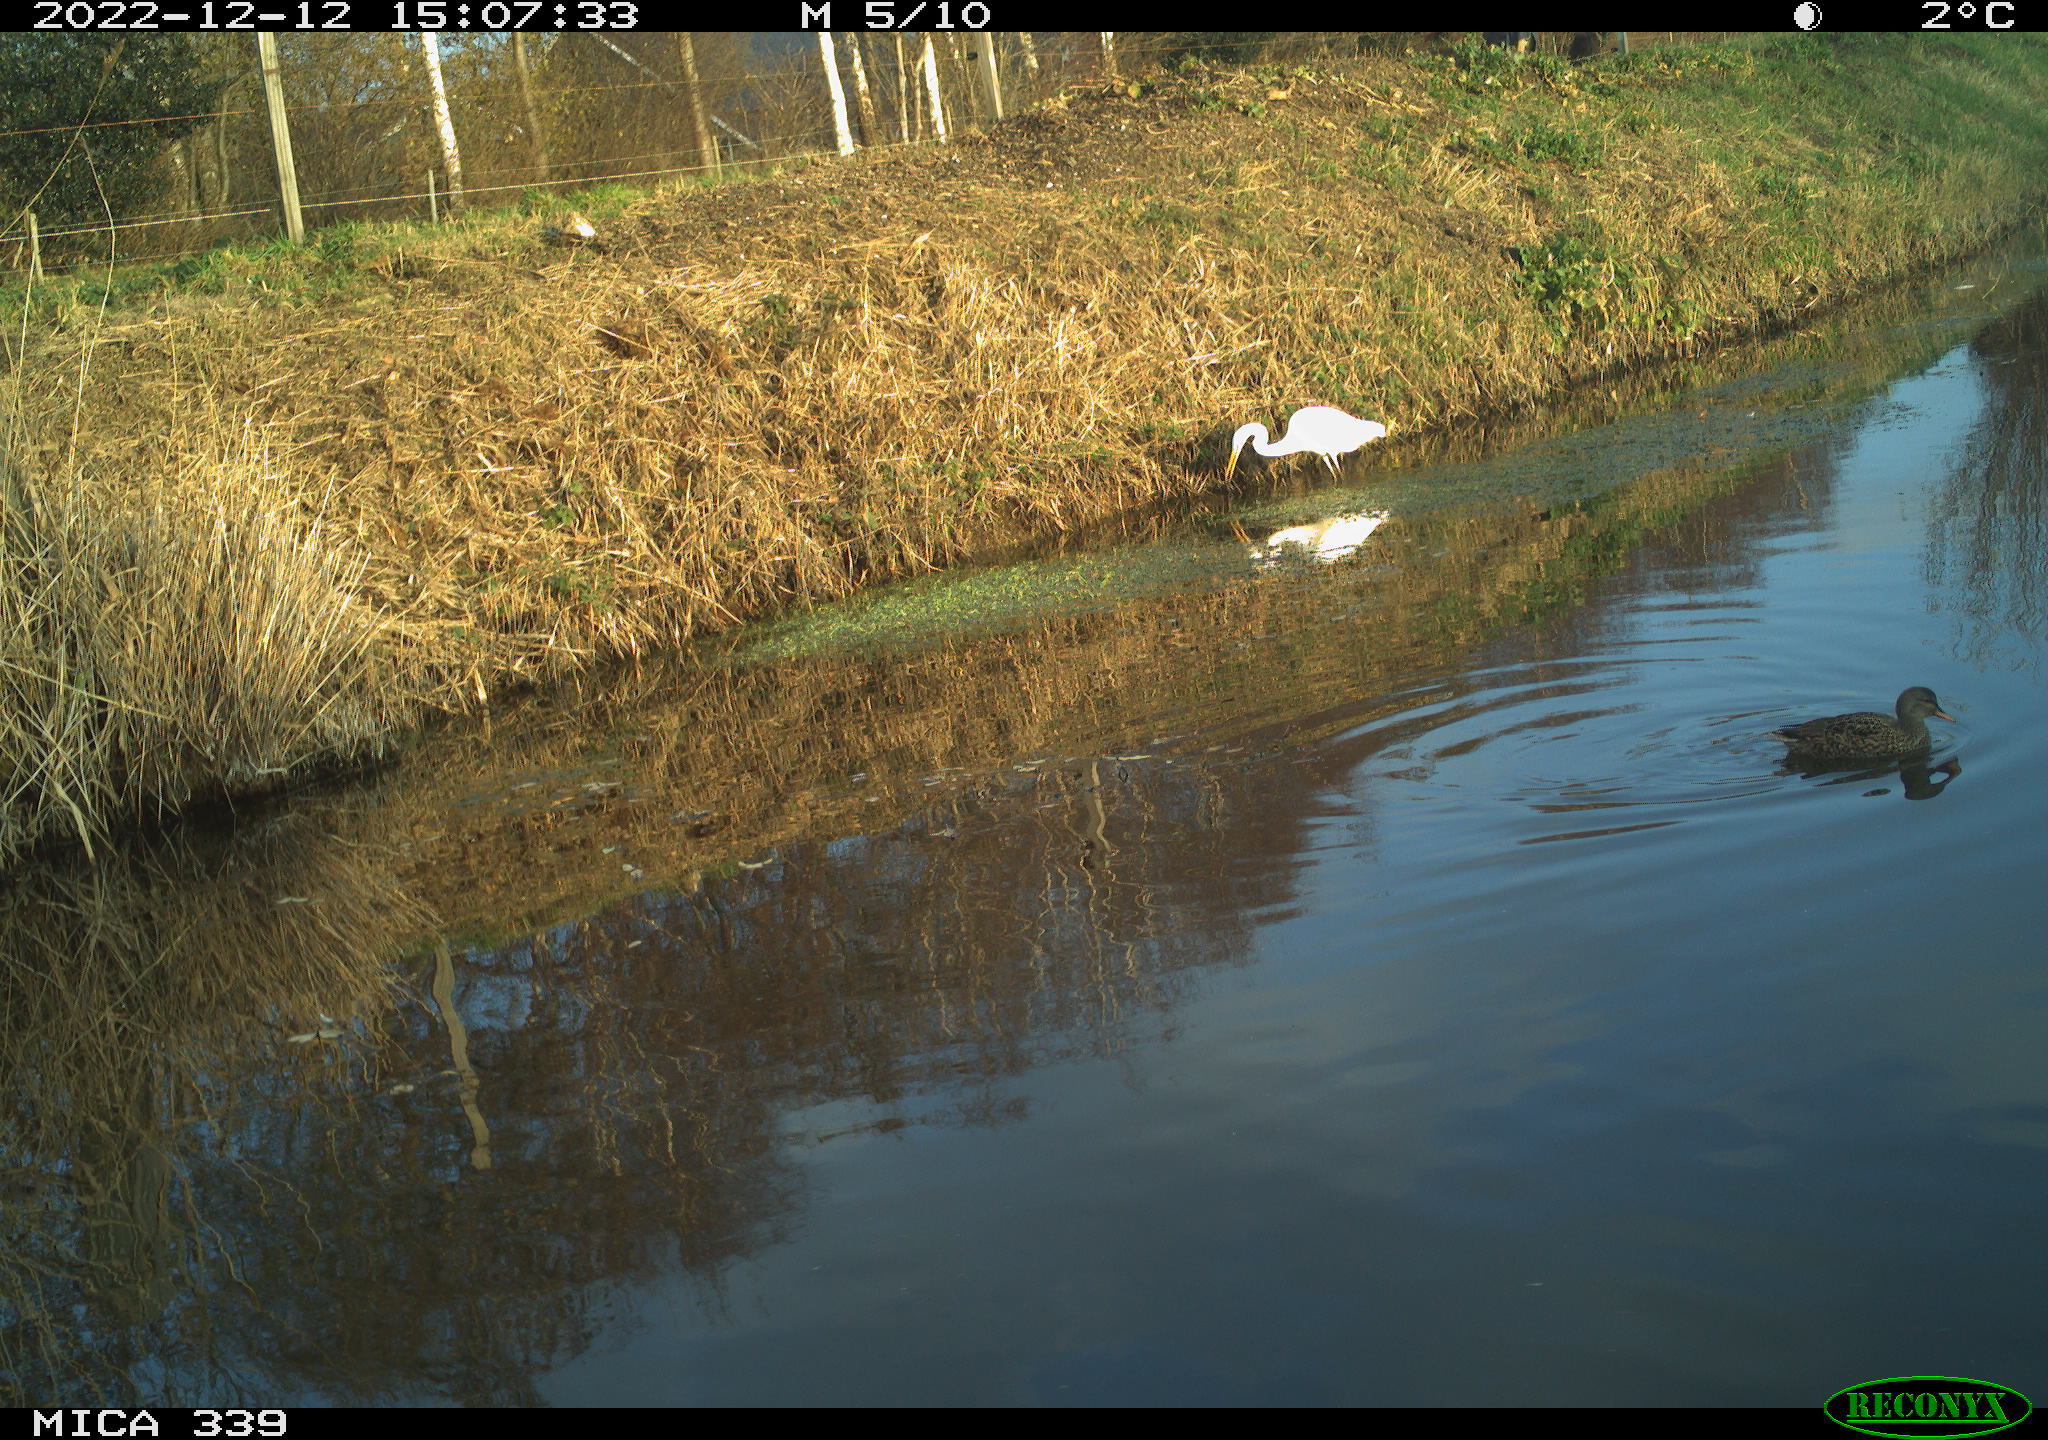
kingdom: Animalia
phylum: Chordata
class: Aves
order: Anseriformes
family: Anatidae
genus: Anas
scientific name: Anas
